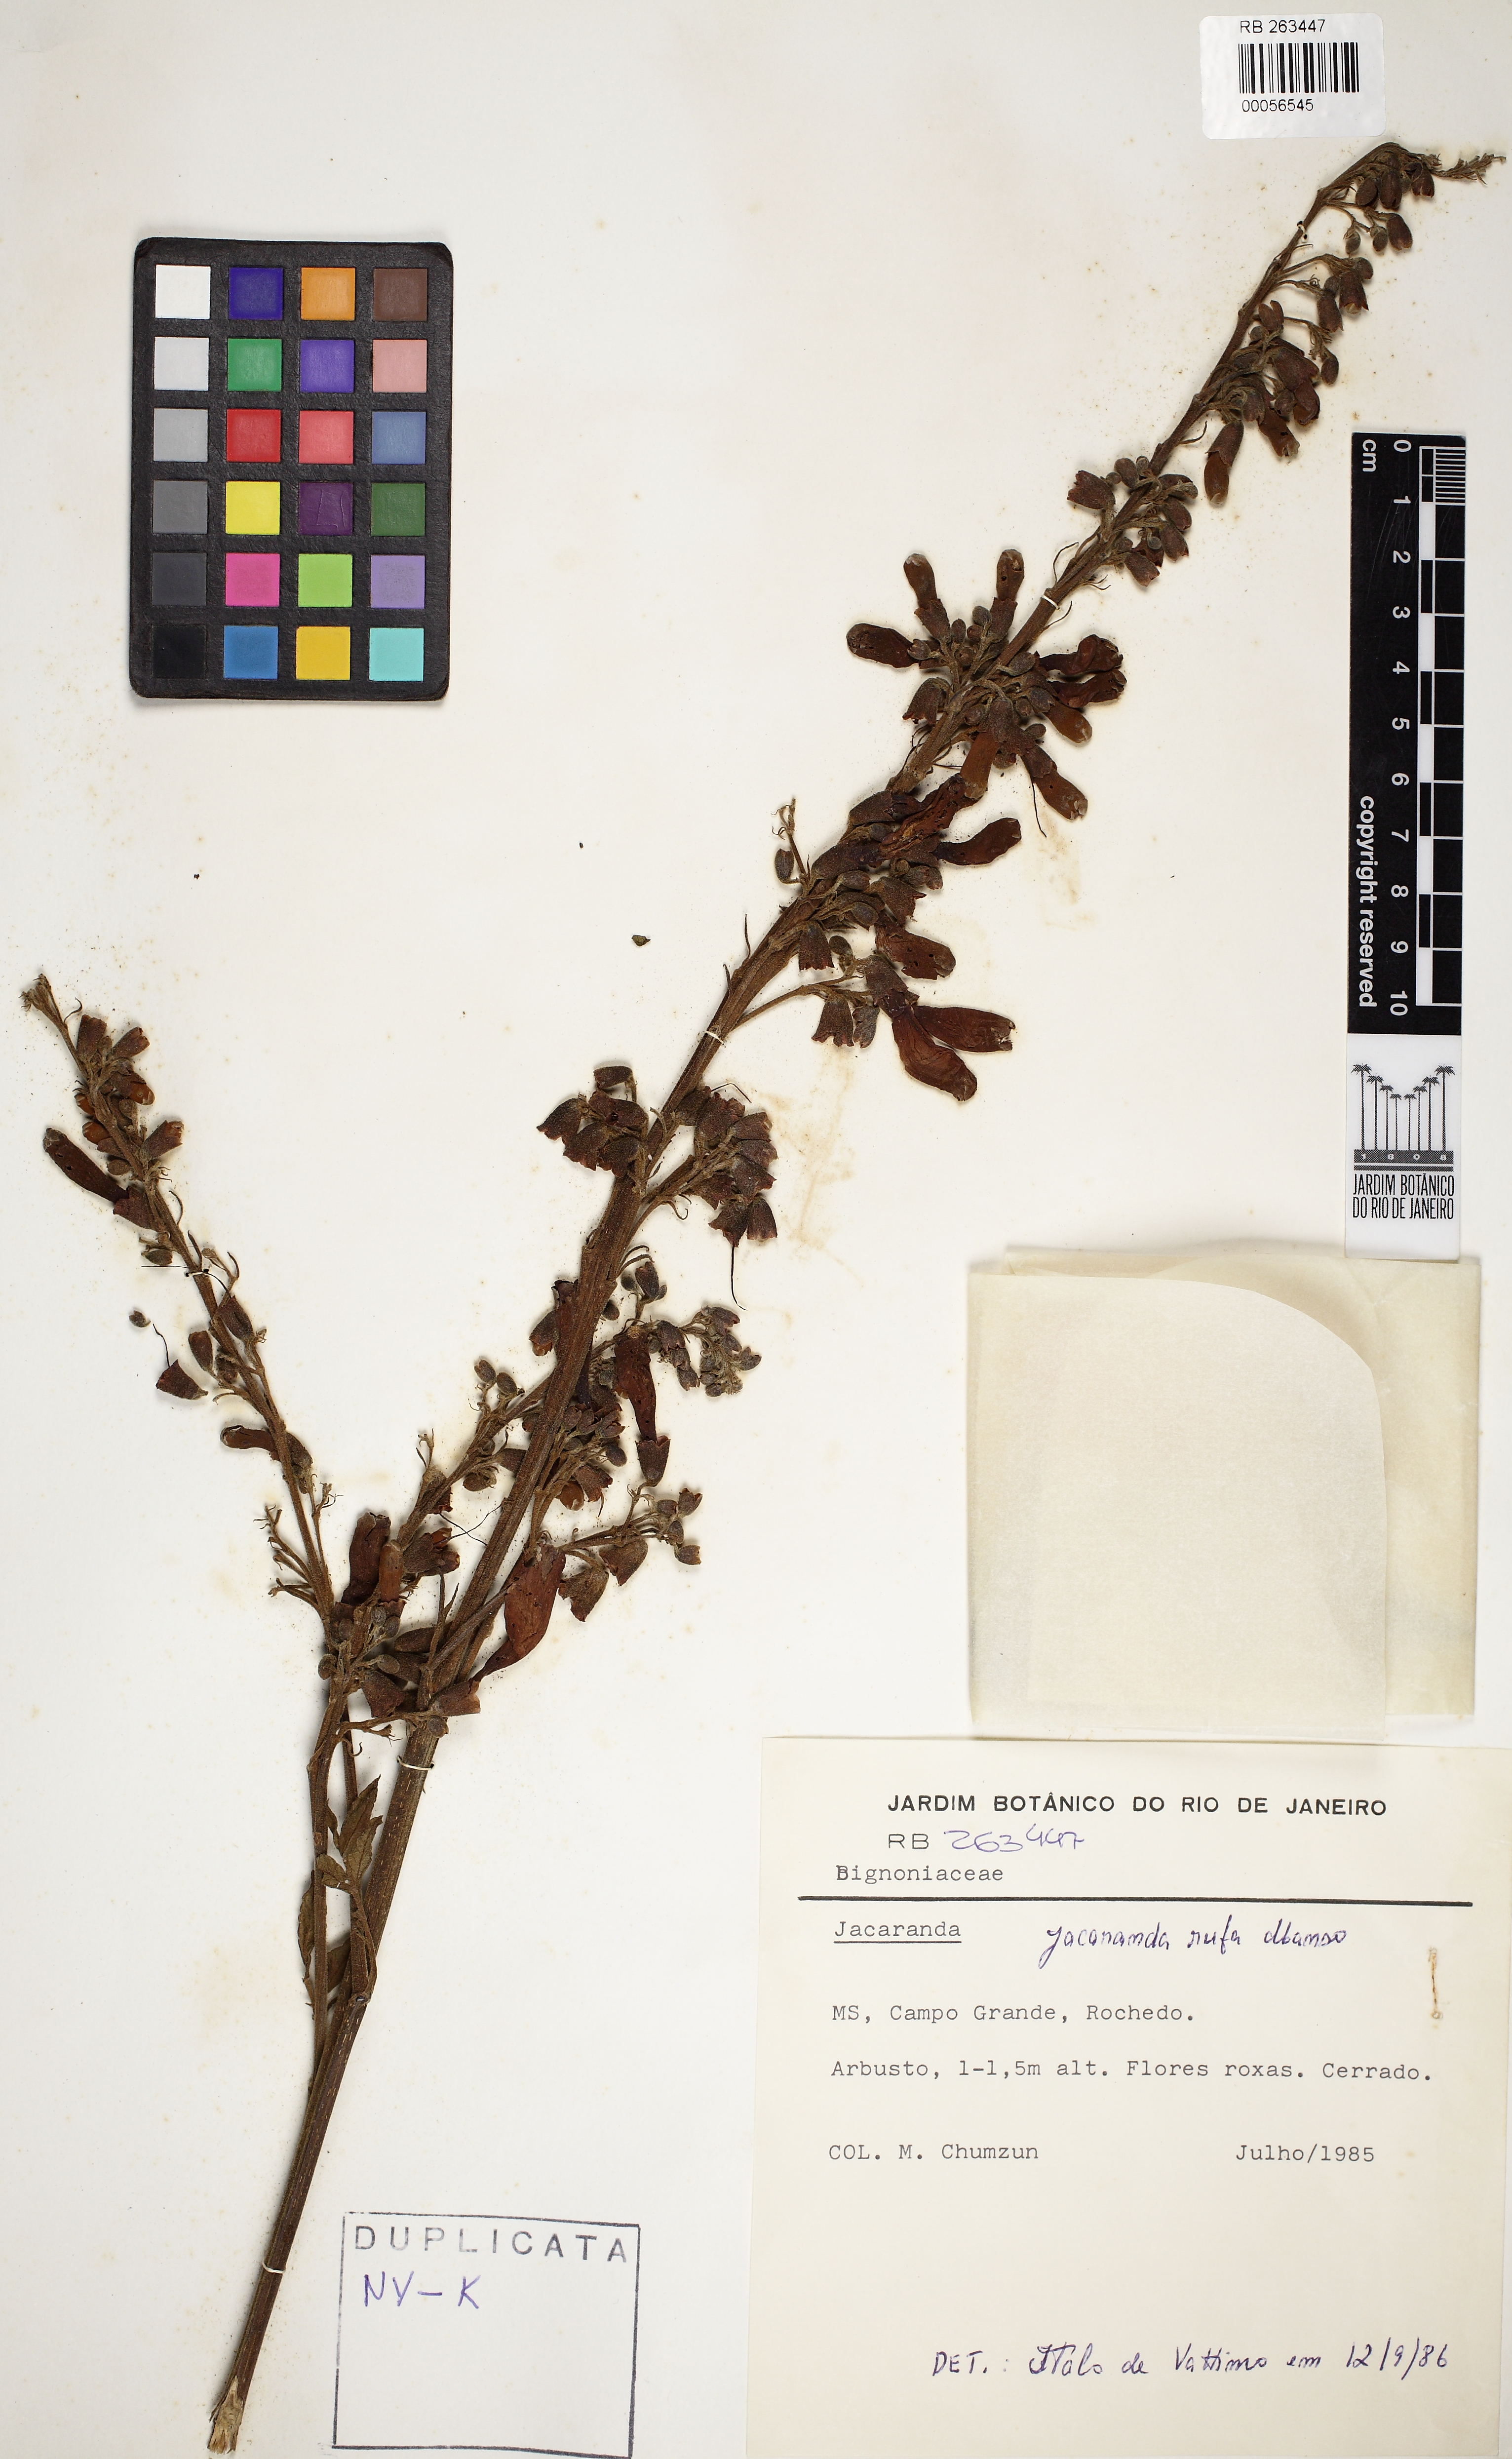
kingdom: Plantae
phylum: Tracheophyta
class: Magnoliopsida
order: Lamiales
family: Bignoniaceae
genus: Jacaranda
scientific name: Jacaranda rufa
